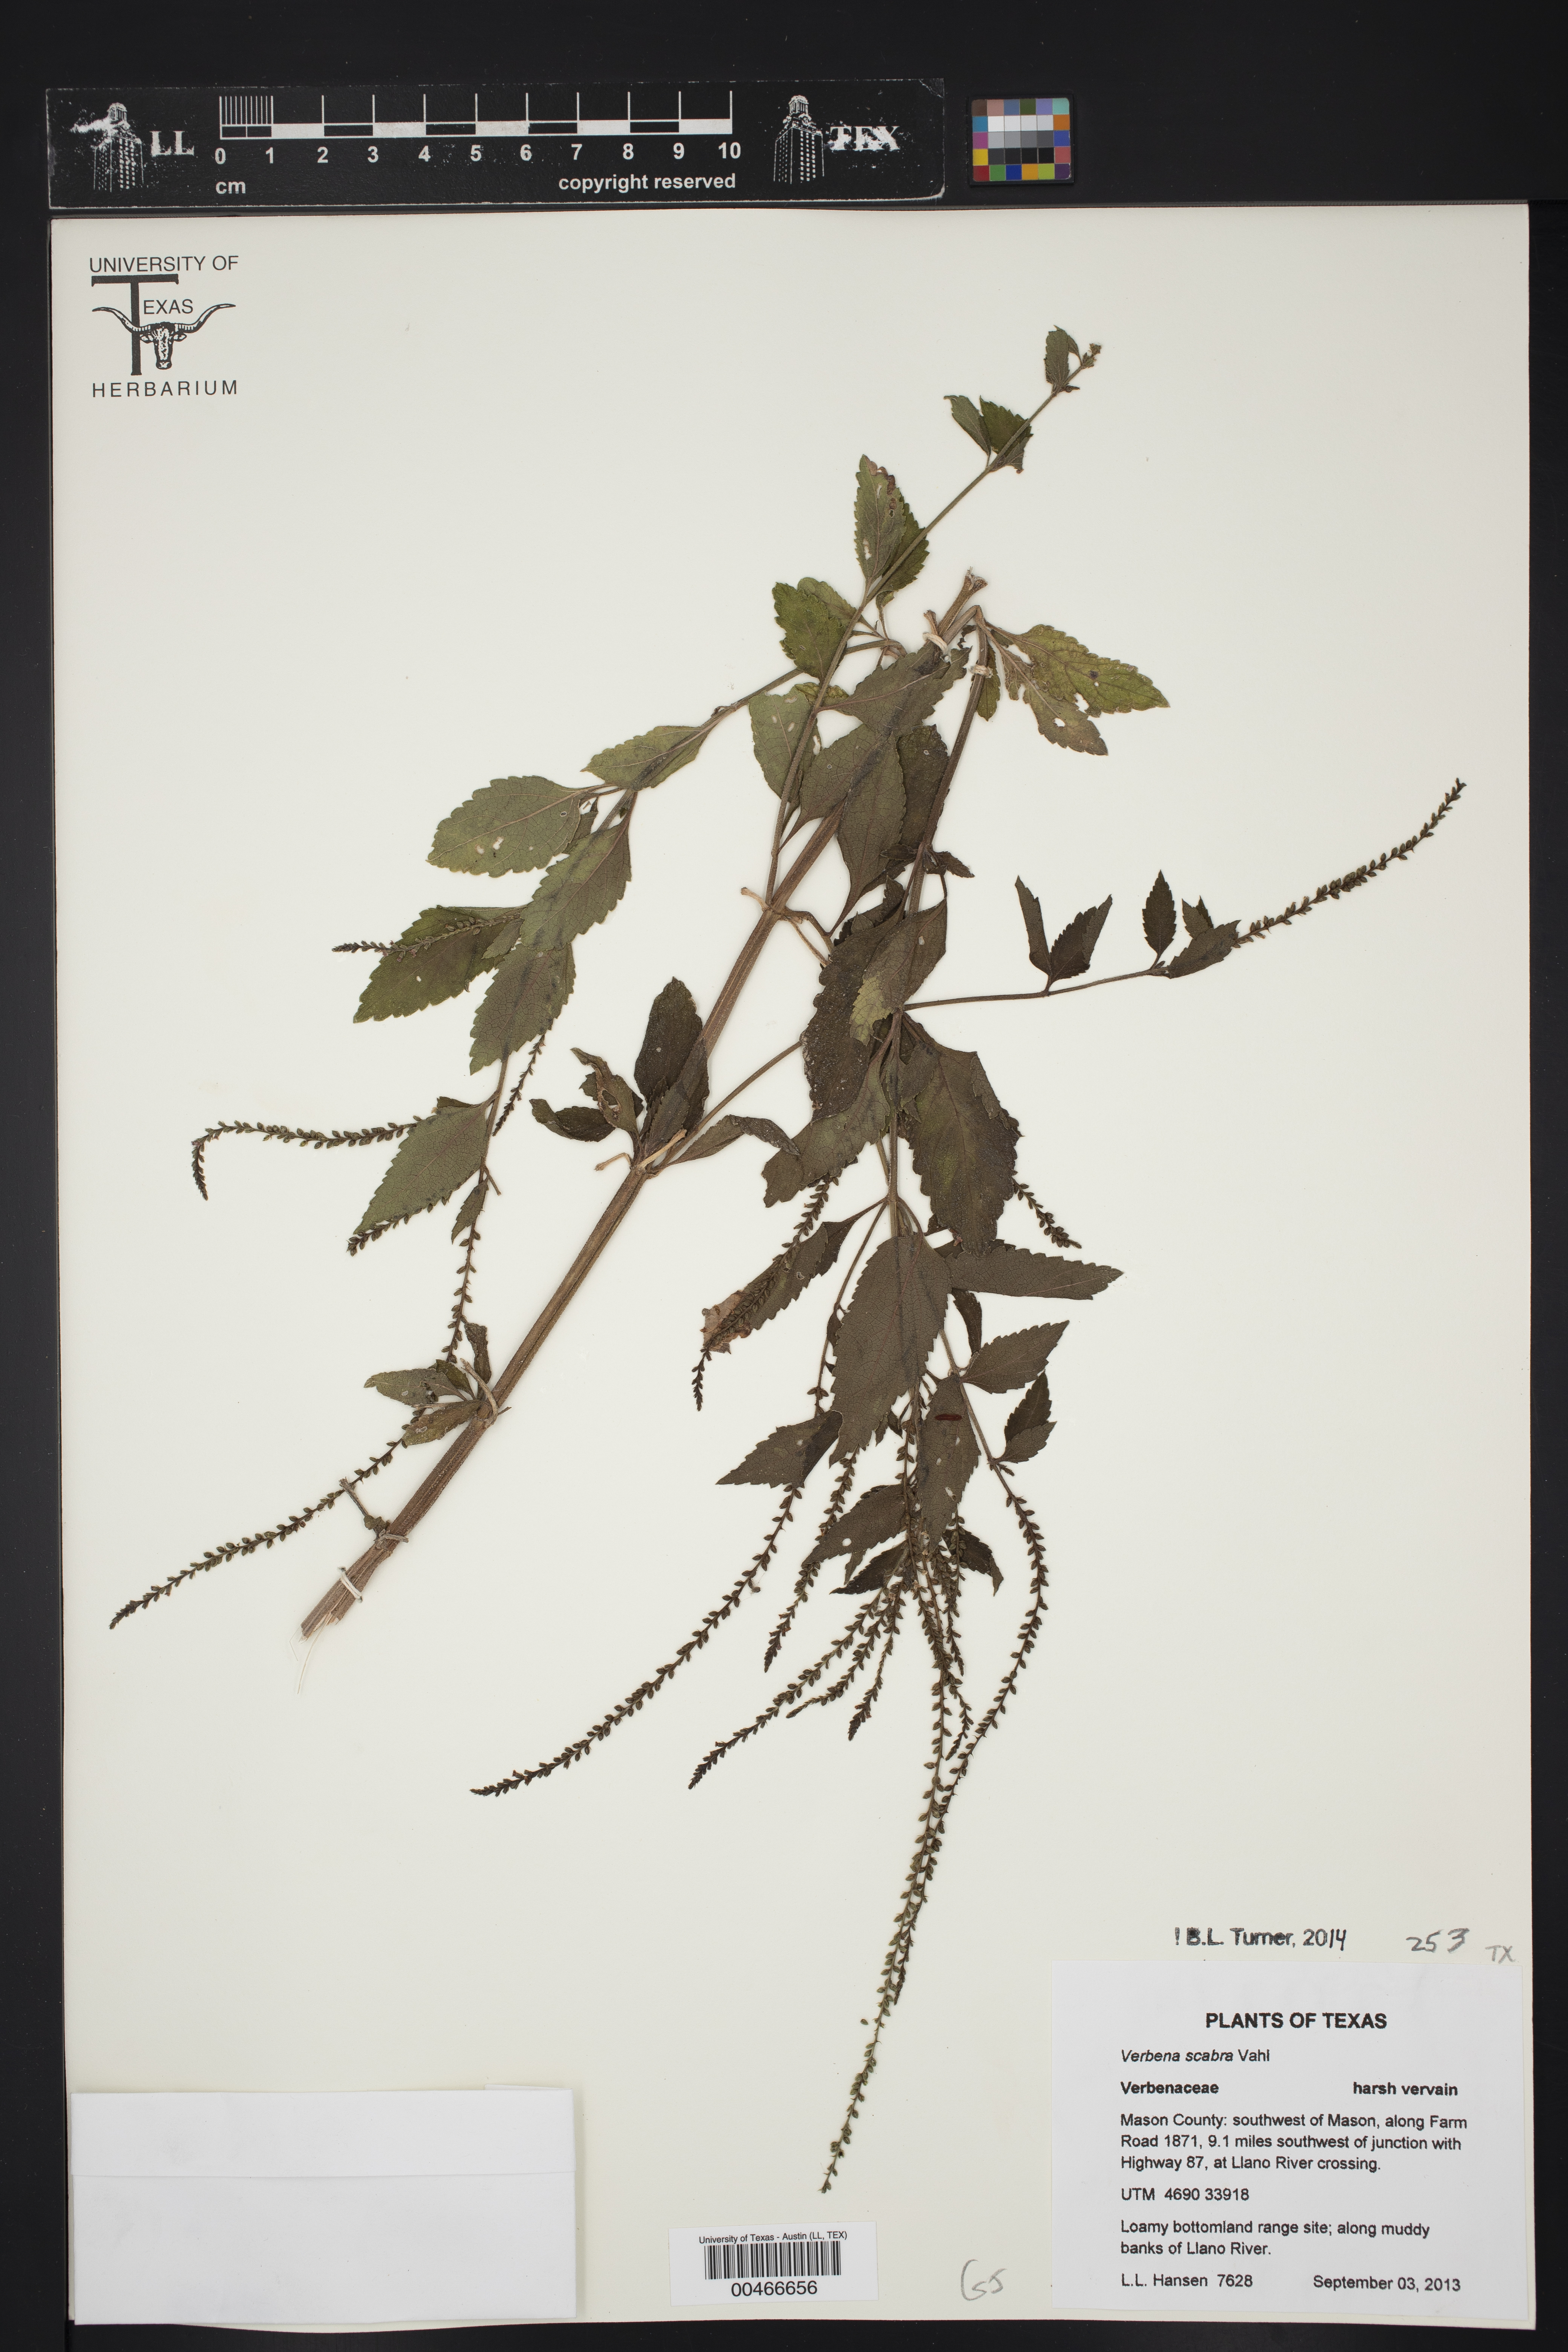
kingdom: Plantae
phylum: Tracheophyta
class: Magnoliopsida
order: Lamiales
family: Verbenaceae
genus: Verbena
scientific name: Verbena scabra
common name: Sandpaper vervain
